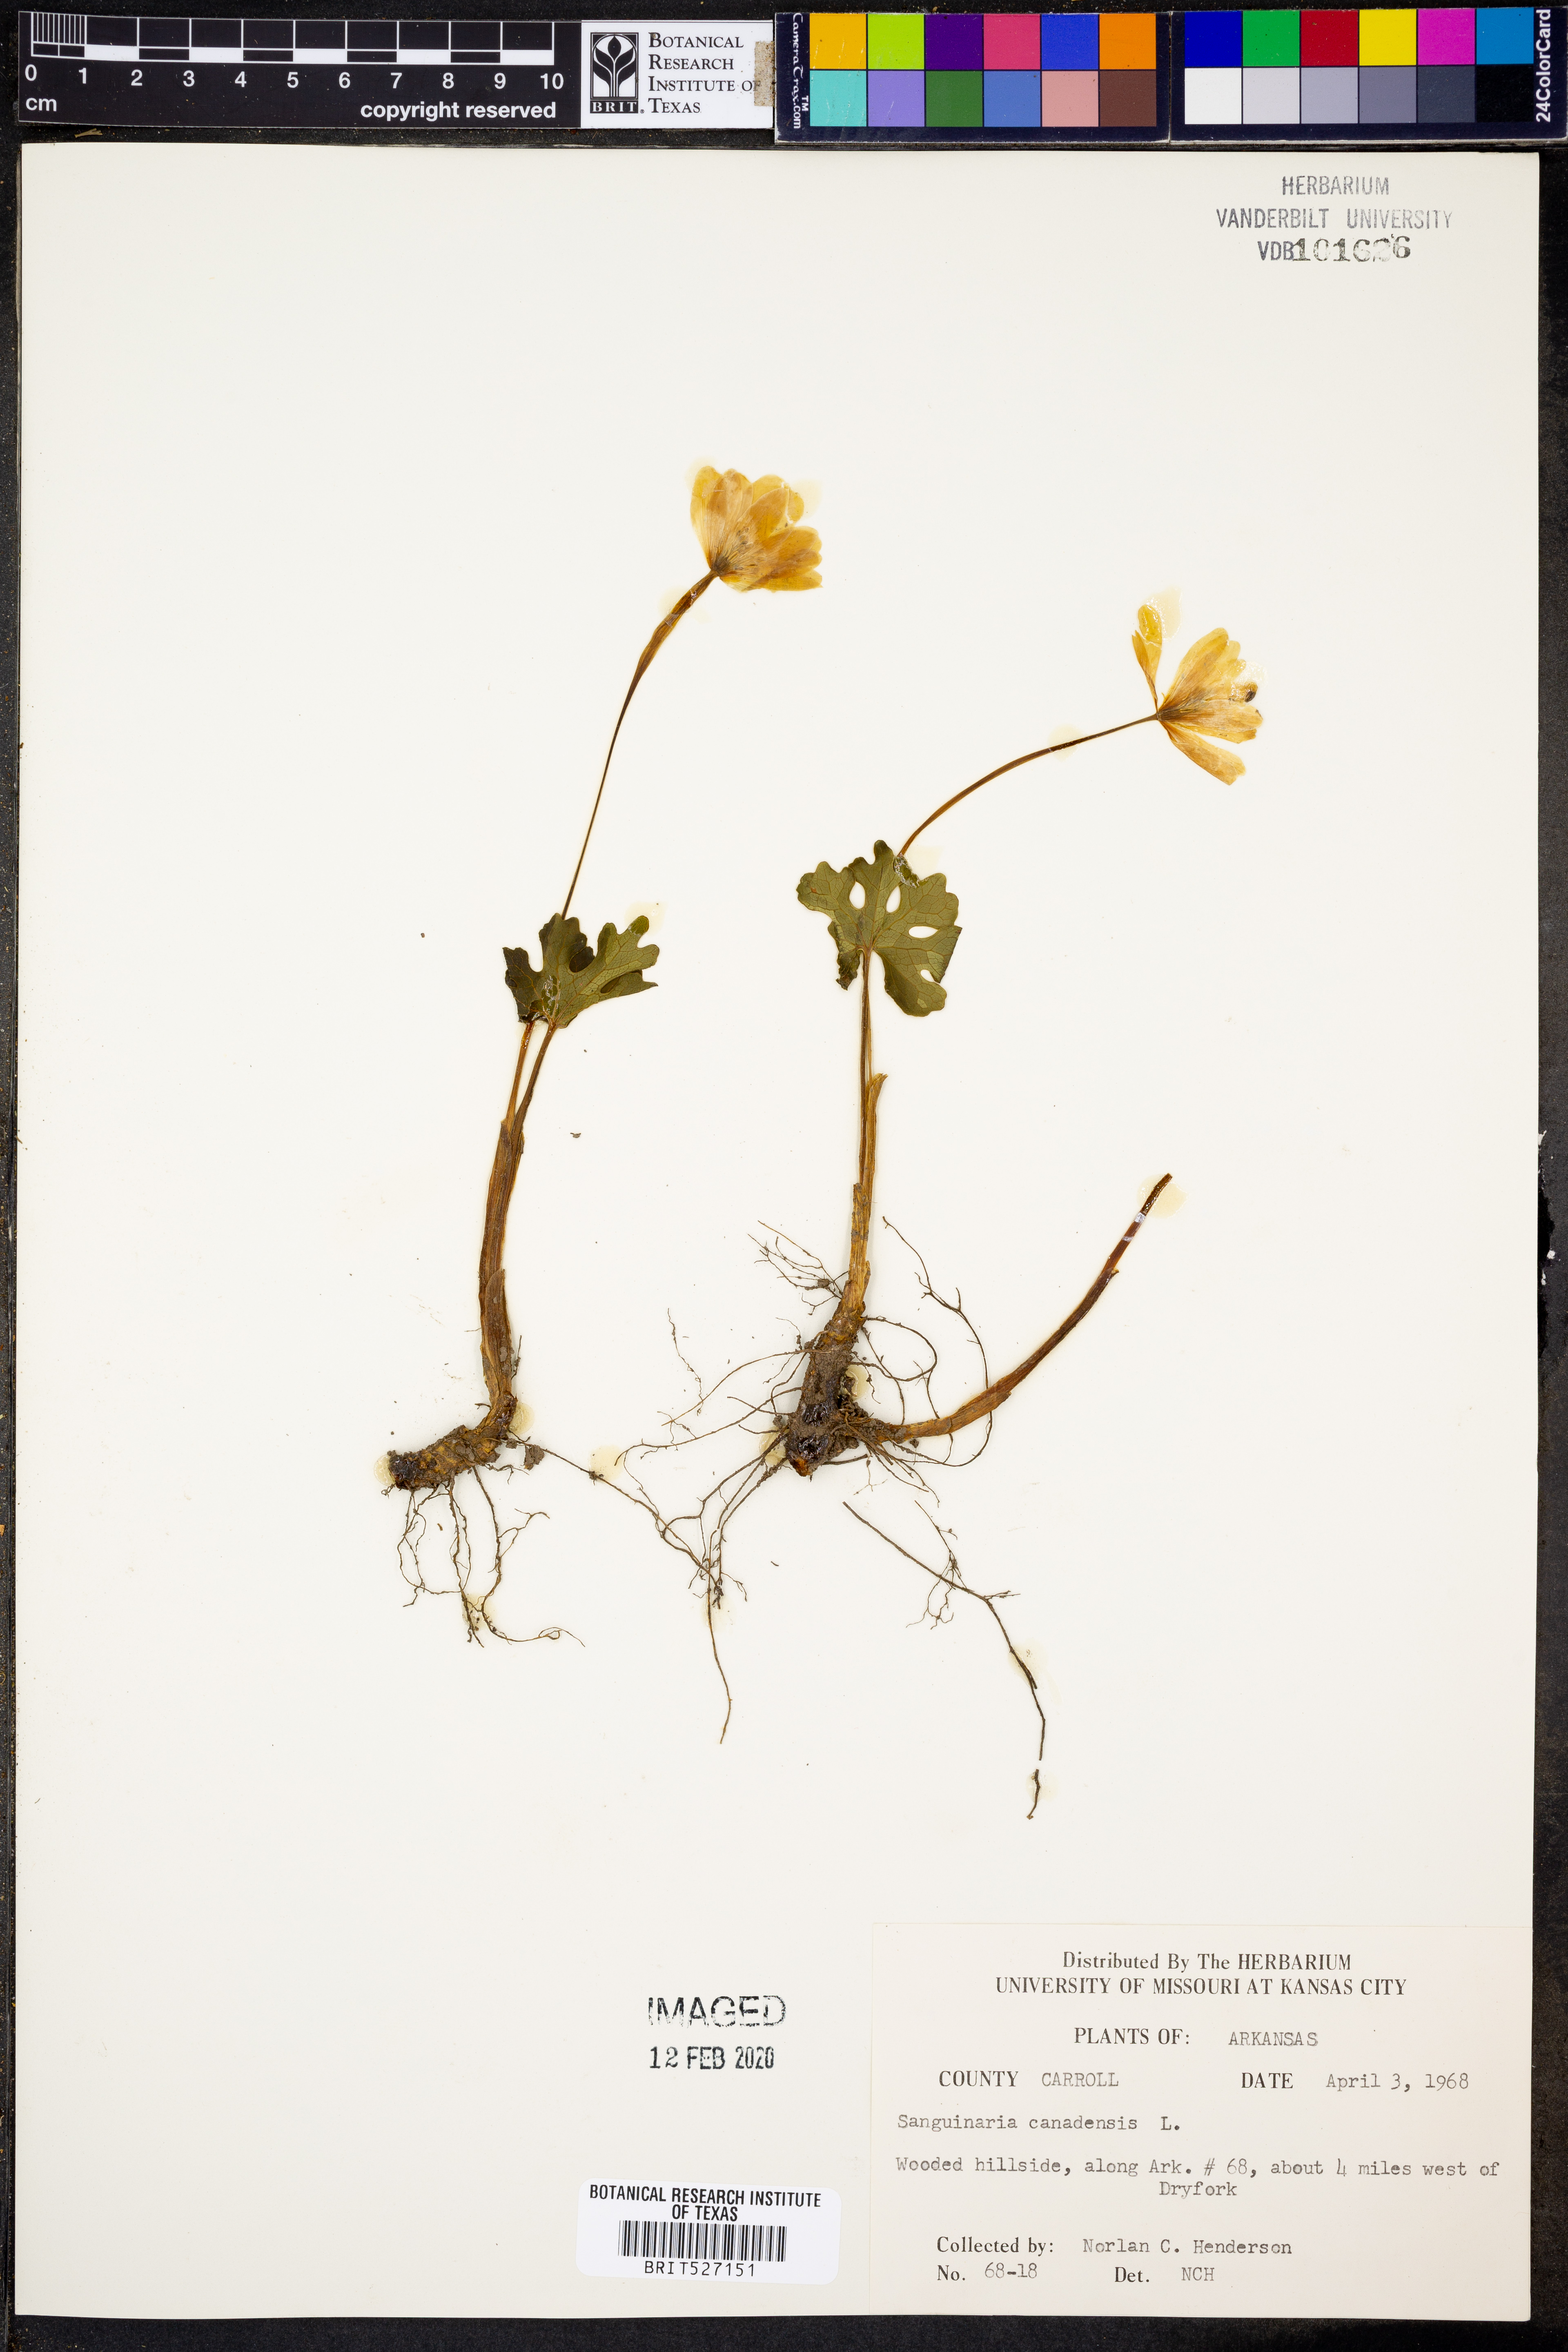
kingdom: Plantae
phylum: Tracheophyta
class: Magnoliopsida
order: Ranunculales
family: Papaveraceae
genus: Sanguinaria
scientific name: Sanguinaria canadensis
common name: Bloodroot
